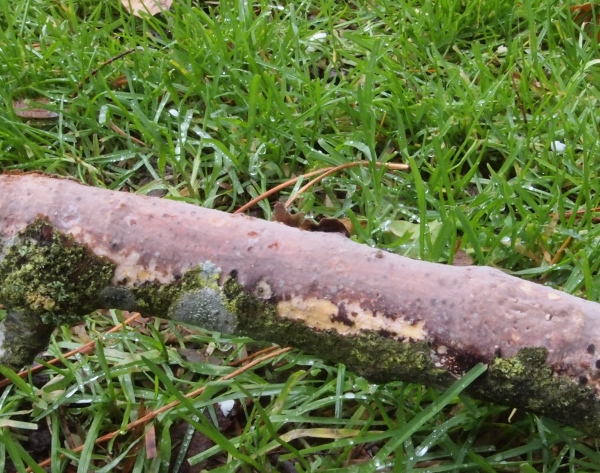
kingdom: Fungi
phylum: Basidiomycota
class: Agaricomycetes
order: Corticiales
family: Vuilleminiaceae
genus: Vuilleminia
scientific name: Vuilleminia comedens
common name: almindelig barksprænger
